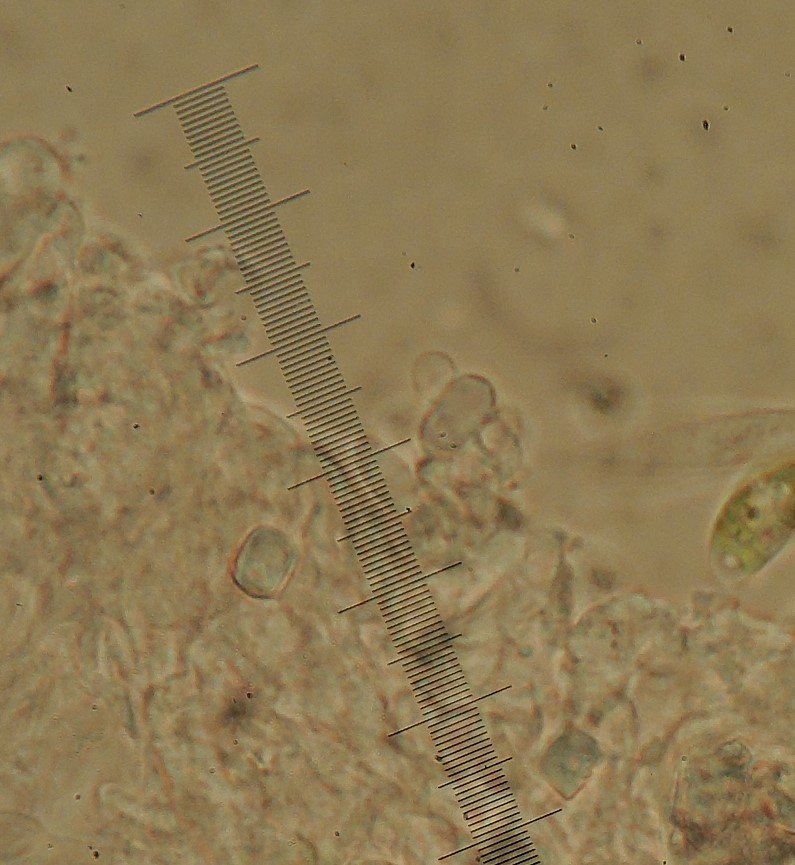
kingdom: Fungi
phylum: Basidiomycota
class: Agaricomycetes
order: Hymenochaetales
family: Rickenellaceae
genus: Bryopistillaria
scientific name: Bryopistillaria sagittiformis
